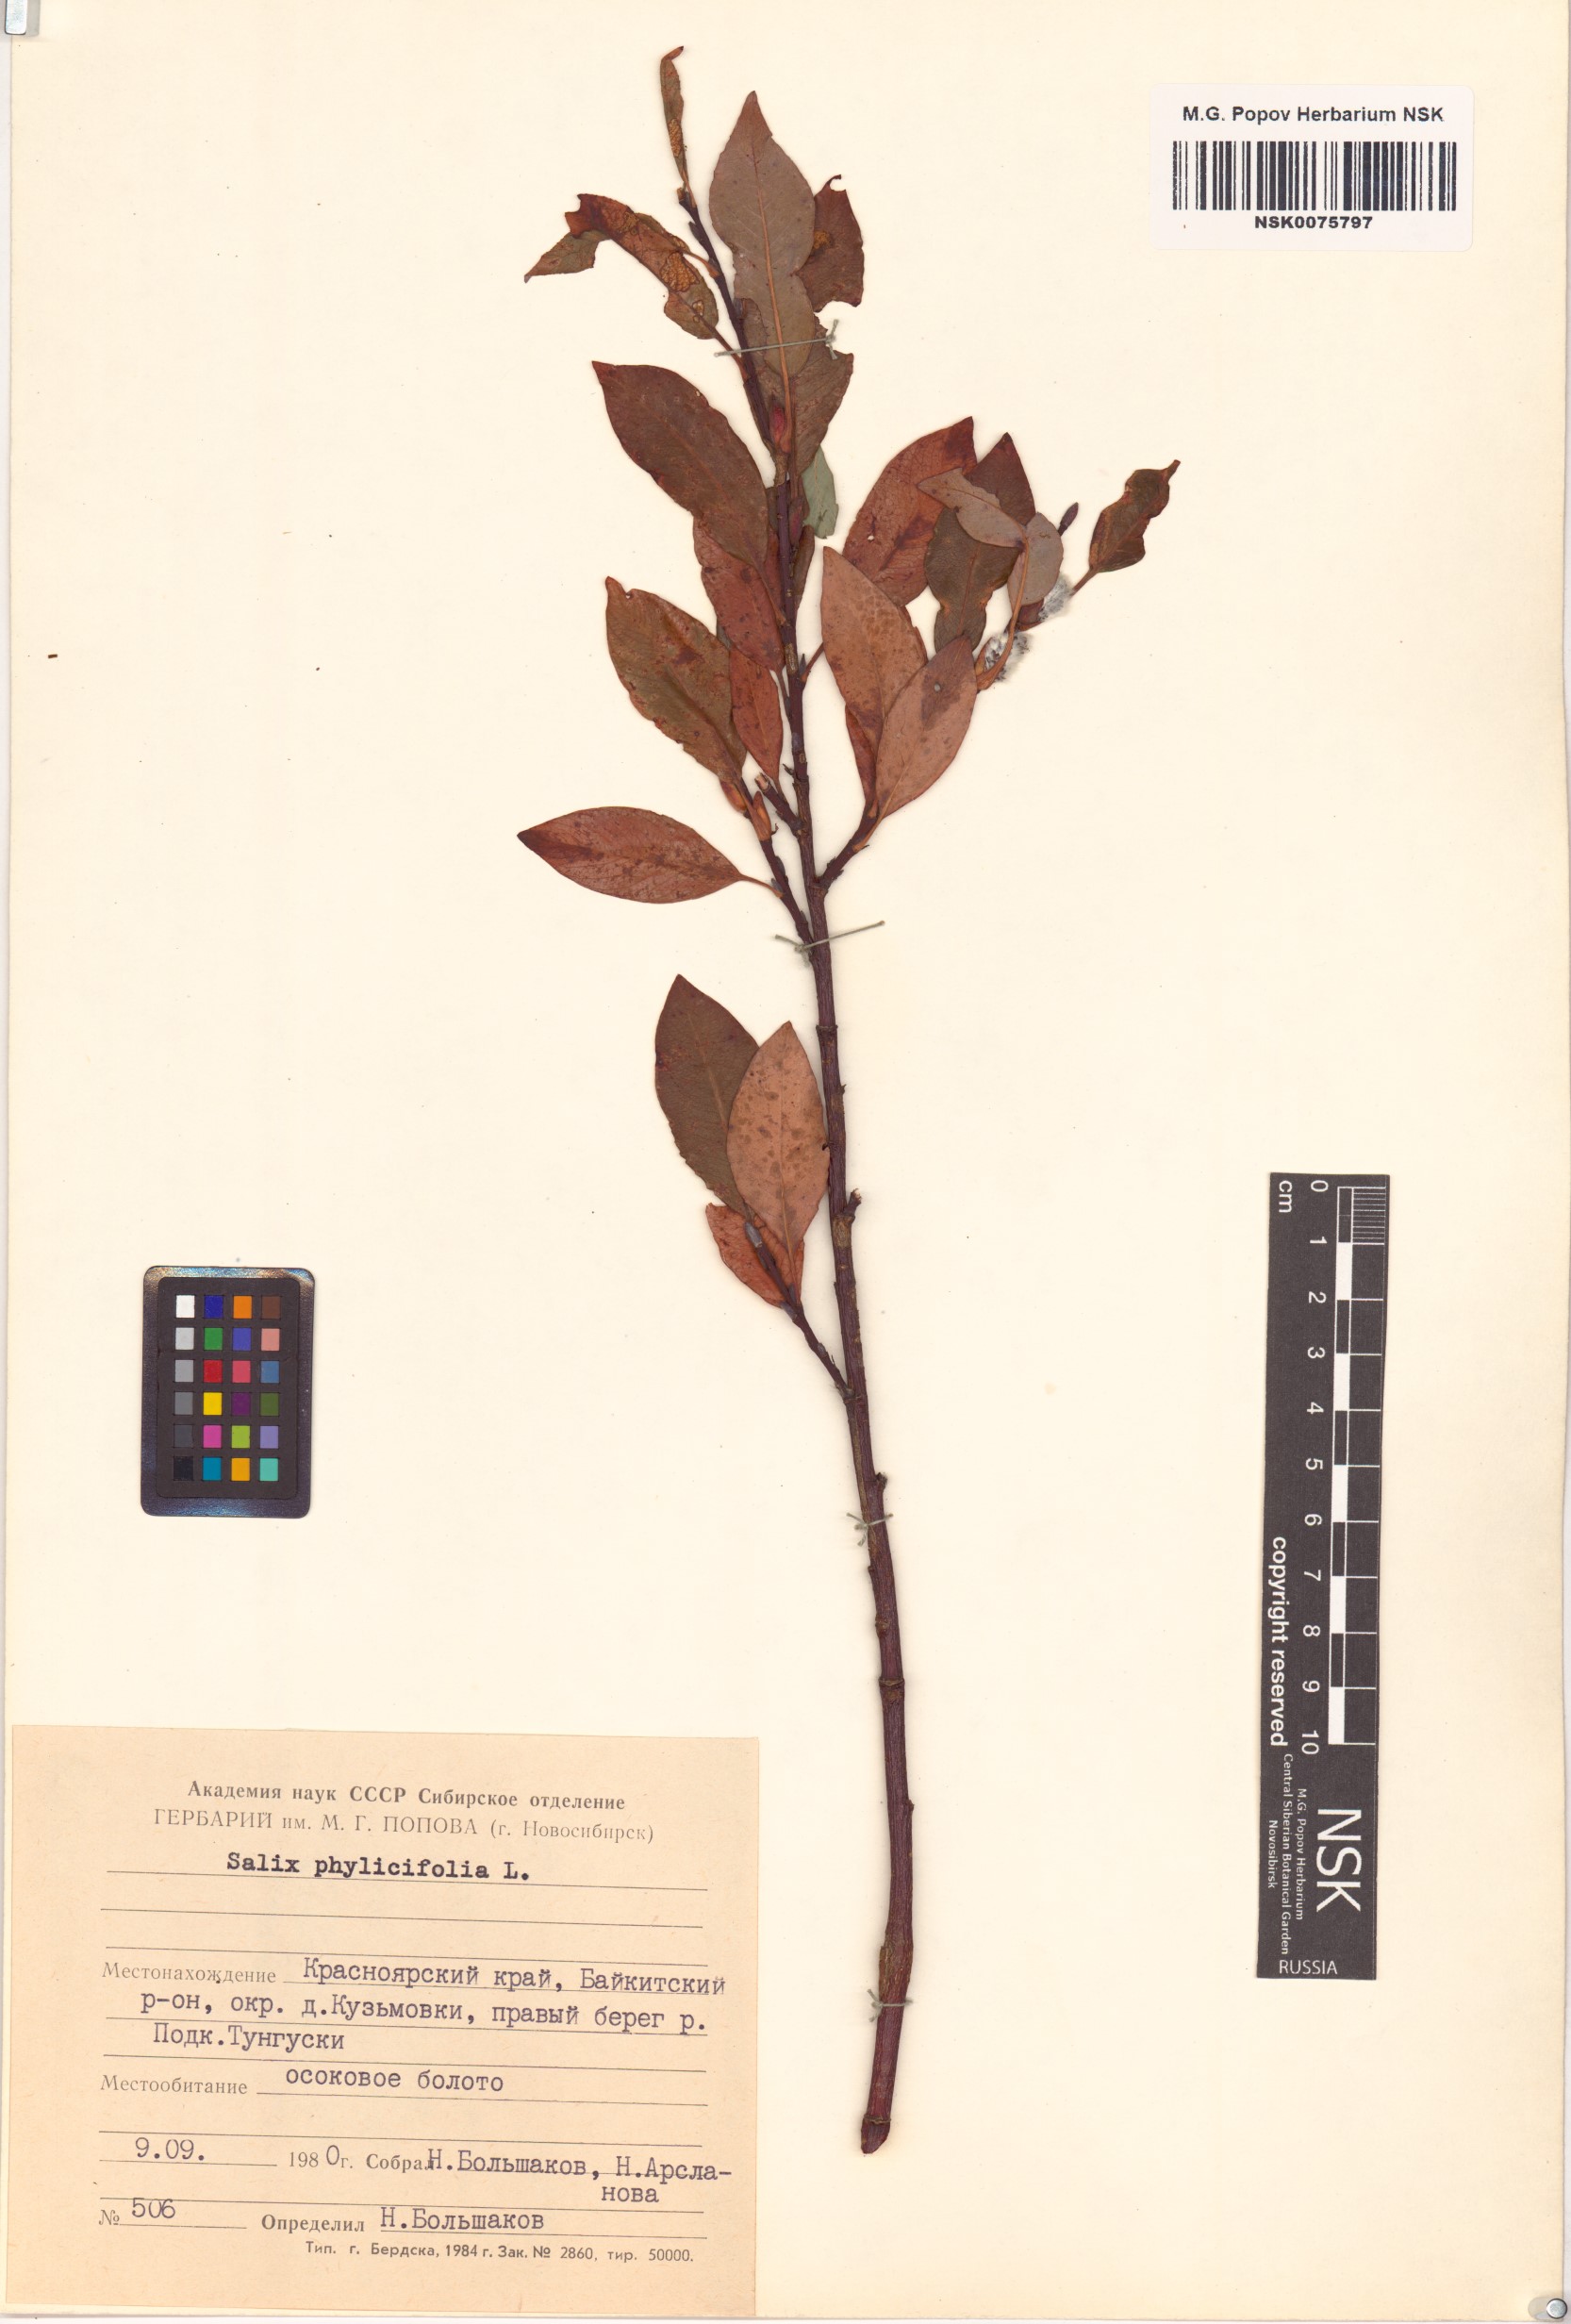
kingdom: Plantae
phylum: Tracheophyta
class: Magnoliopsida
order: Malpighiales
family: Salicaceae
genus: Salix
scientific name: Salix phylicifolia
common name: Tea-leaved willow
